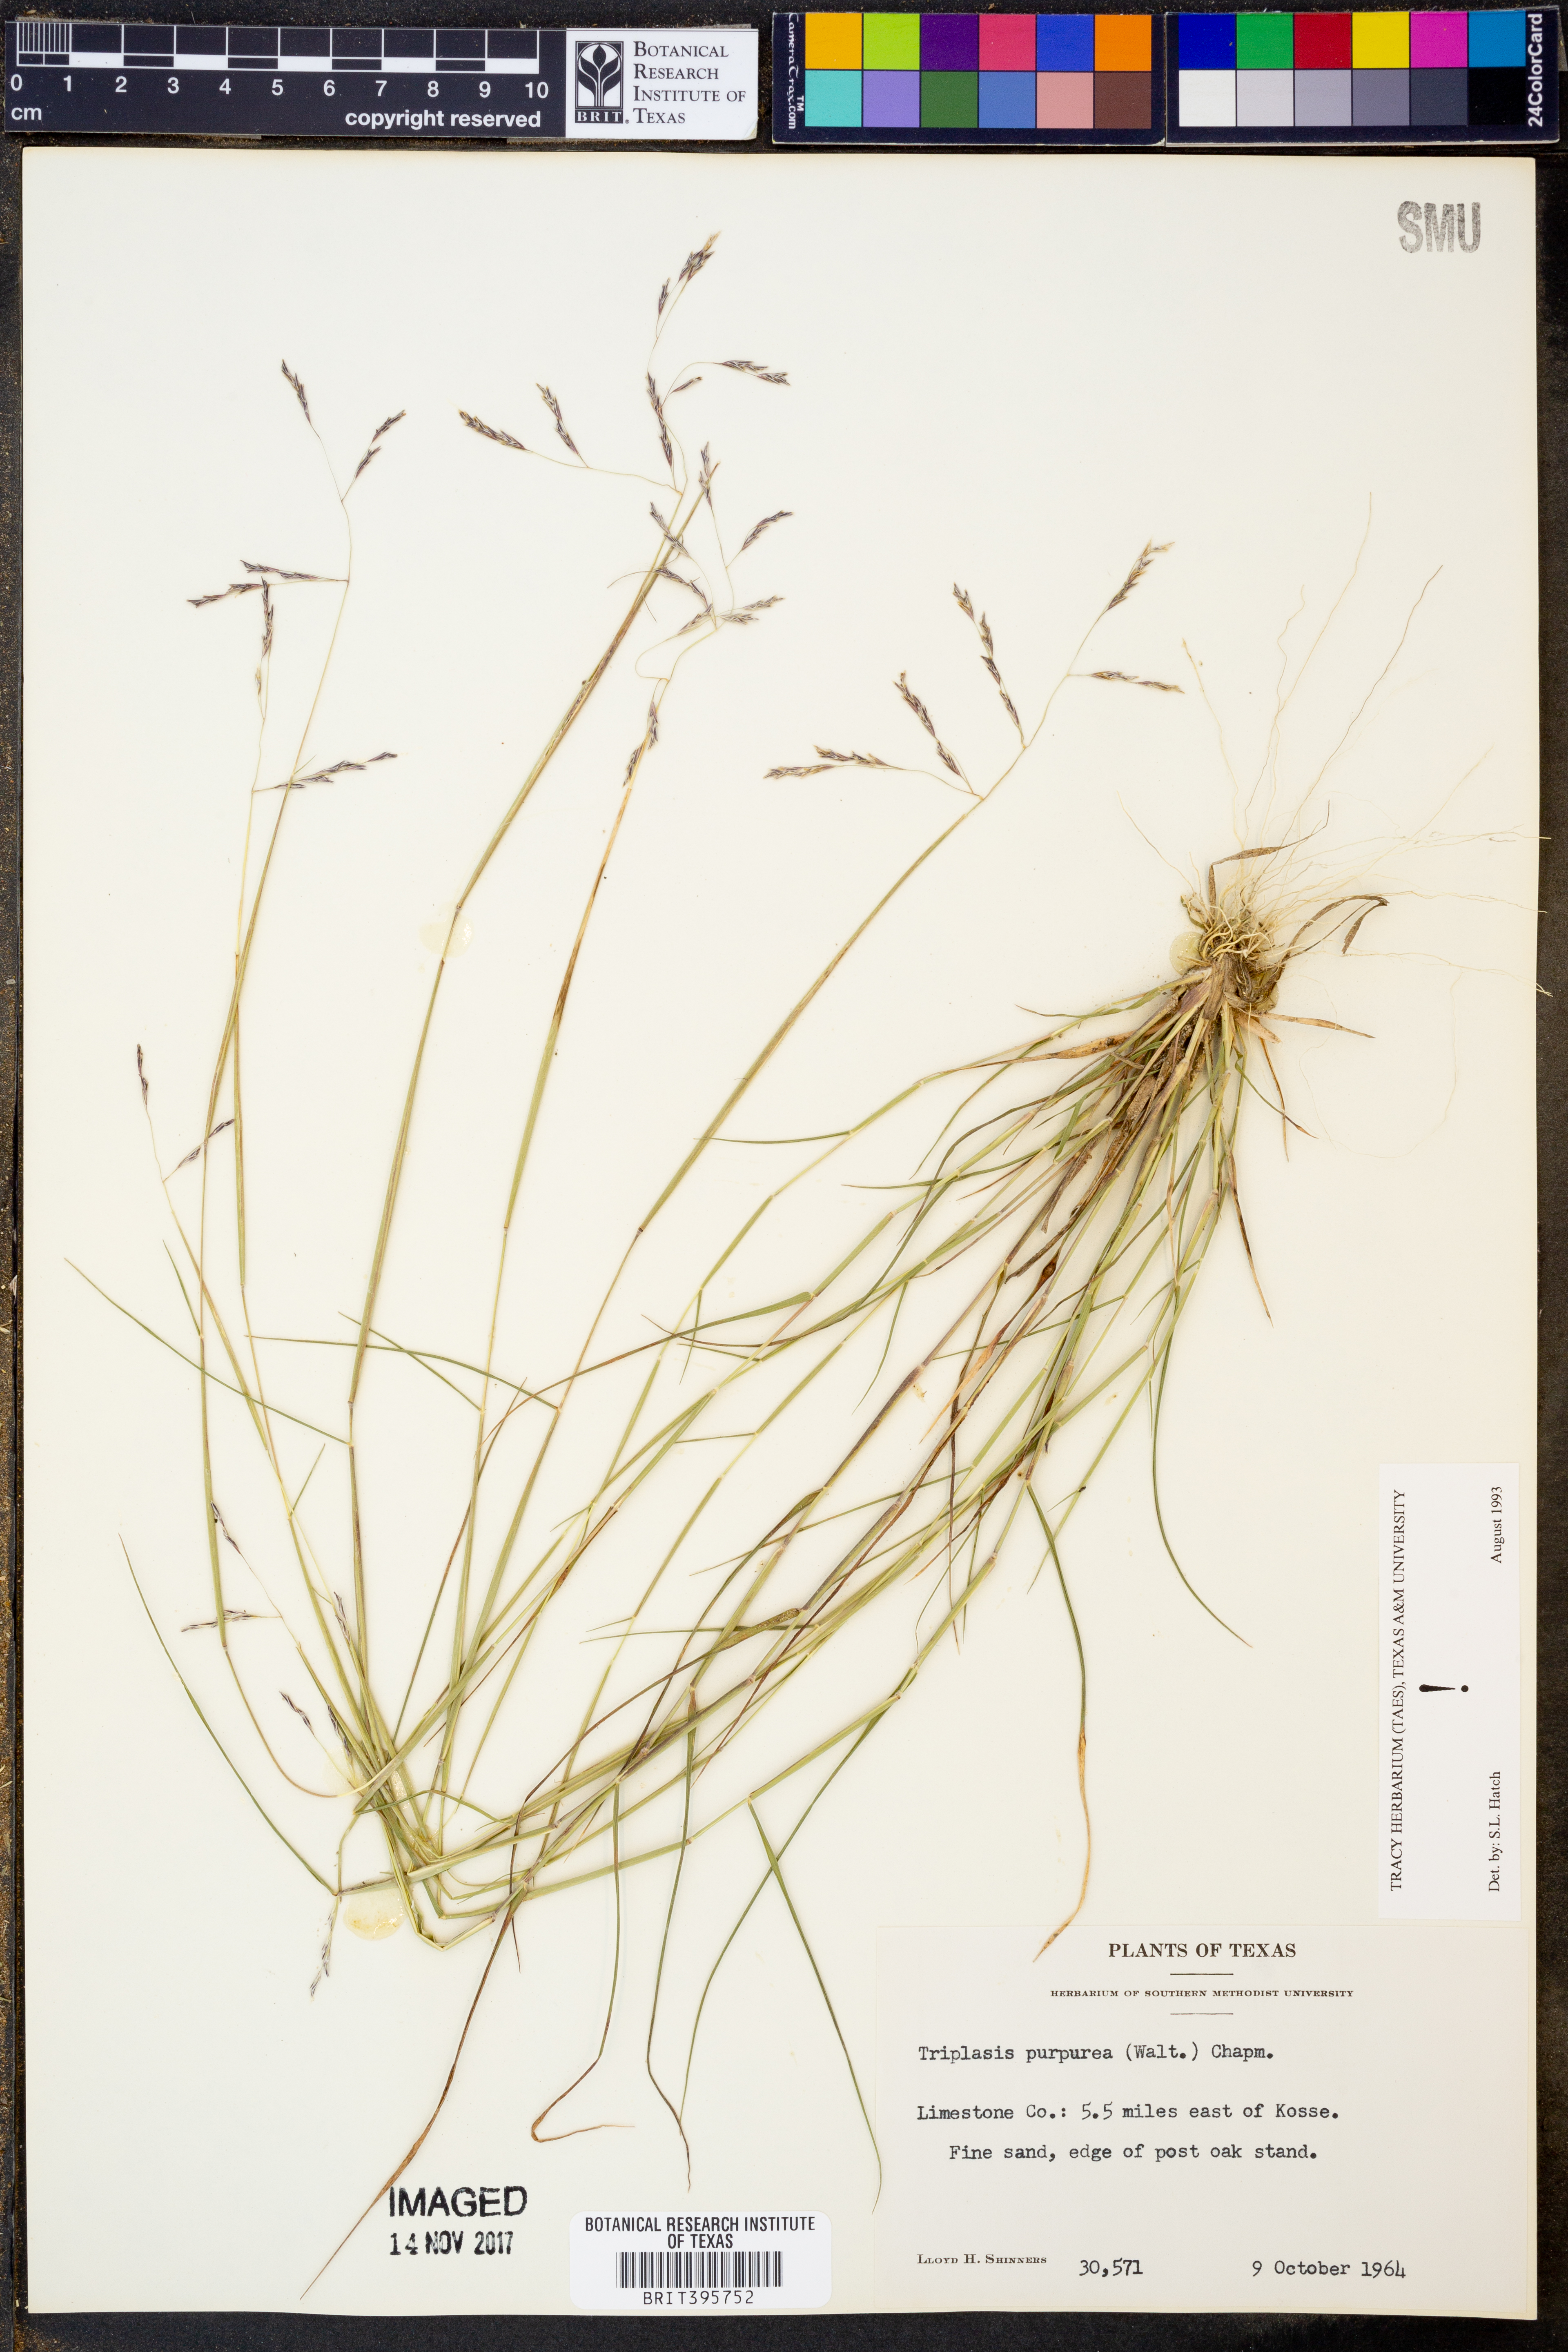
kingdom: Plantae
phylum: Tracheophyta
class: Liliopsida
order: Poales
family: Poaceae
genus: Triplasis
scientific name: Triplasis purpurea
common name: Purple sand grass
